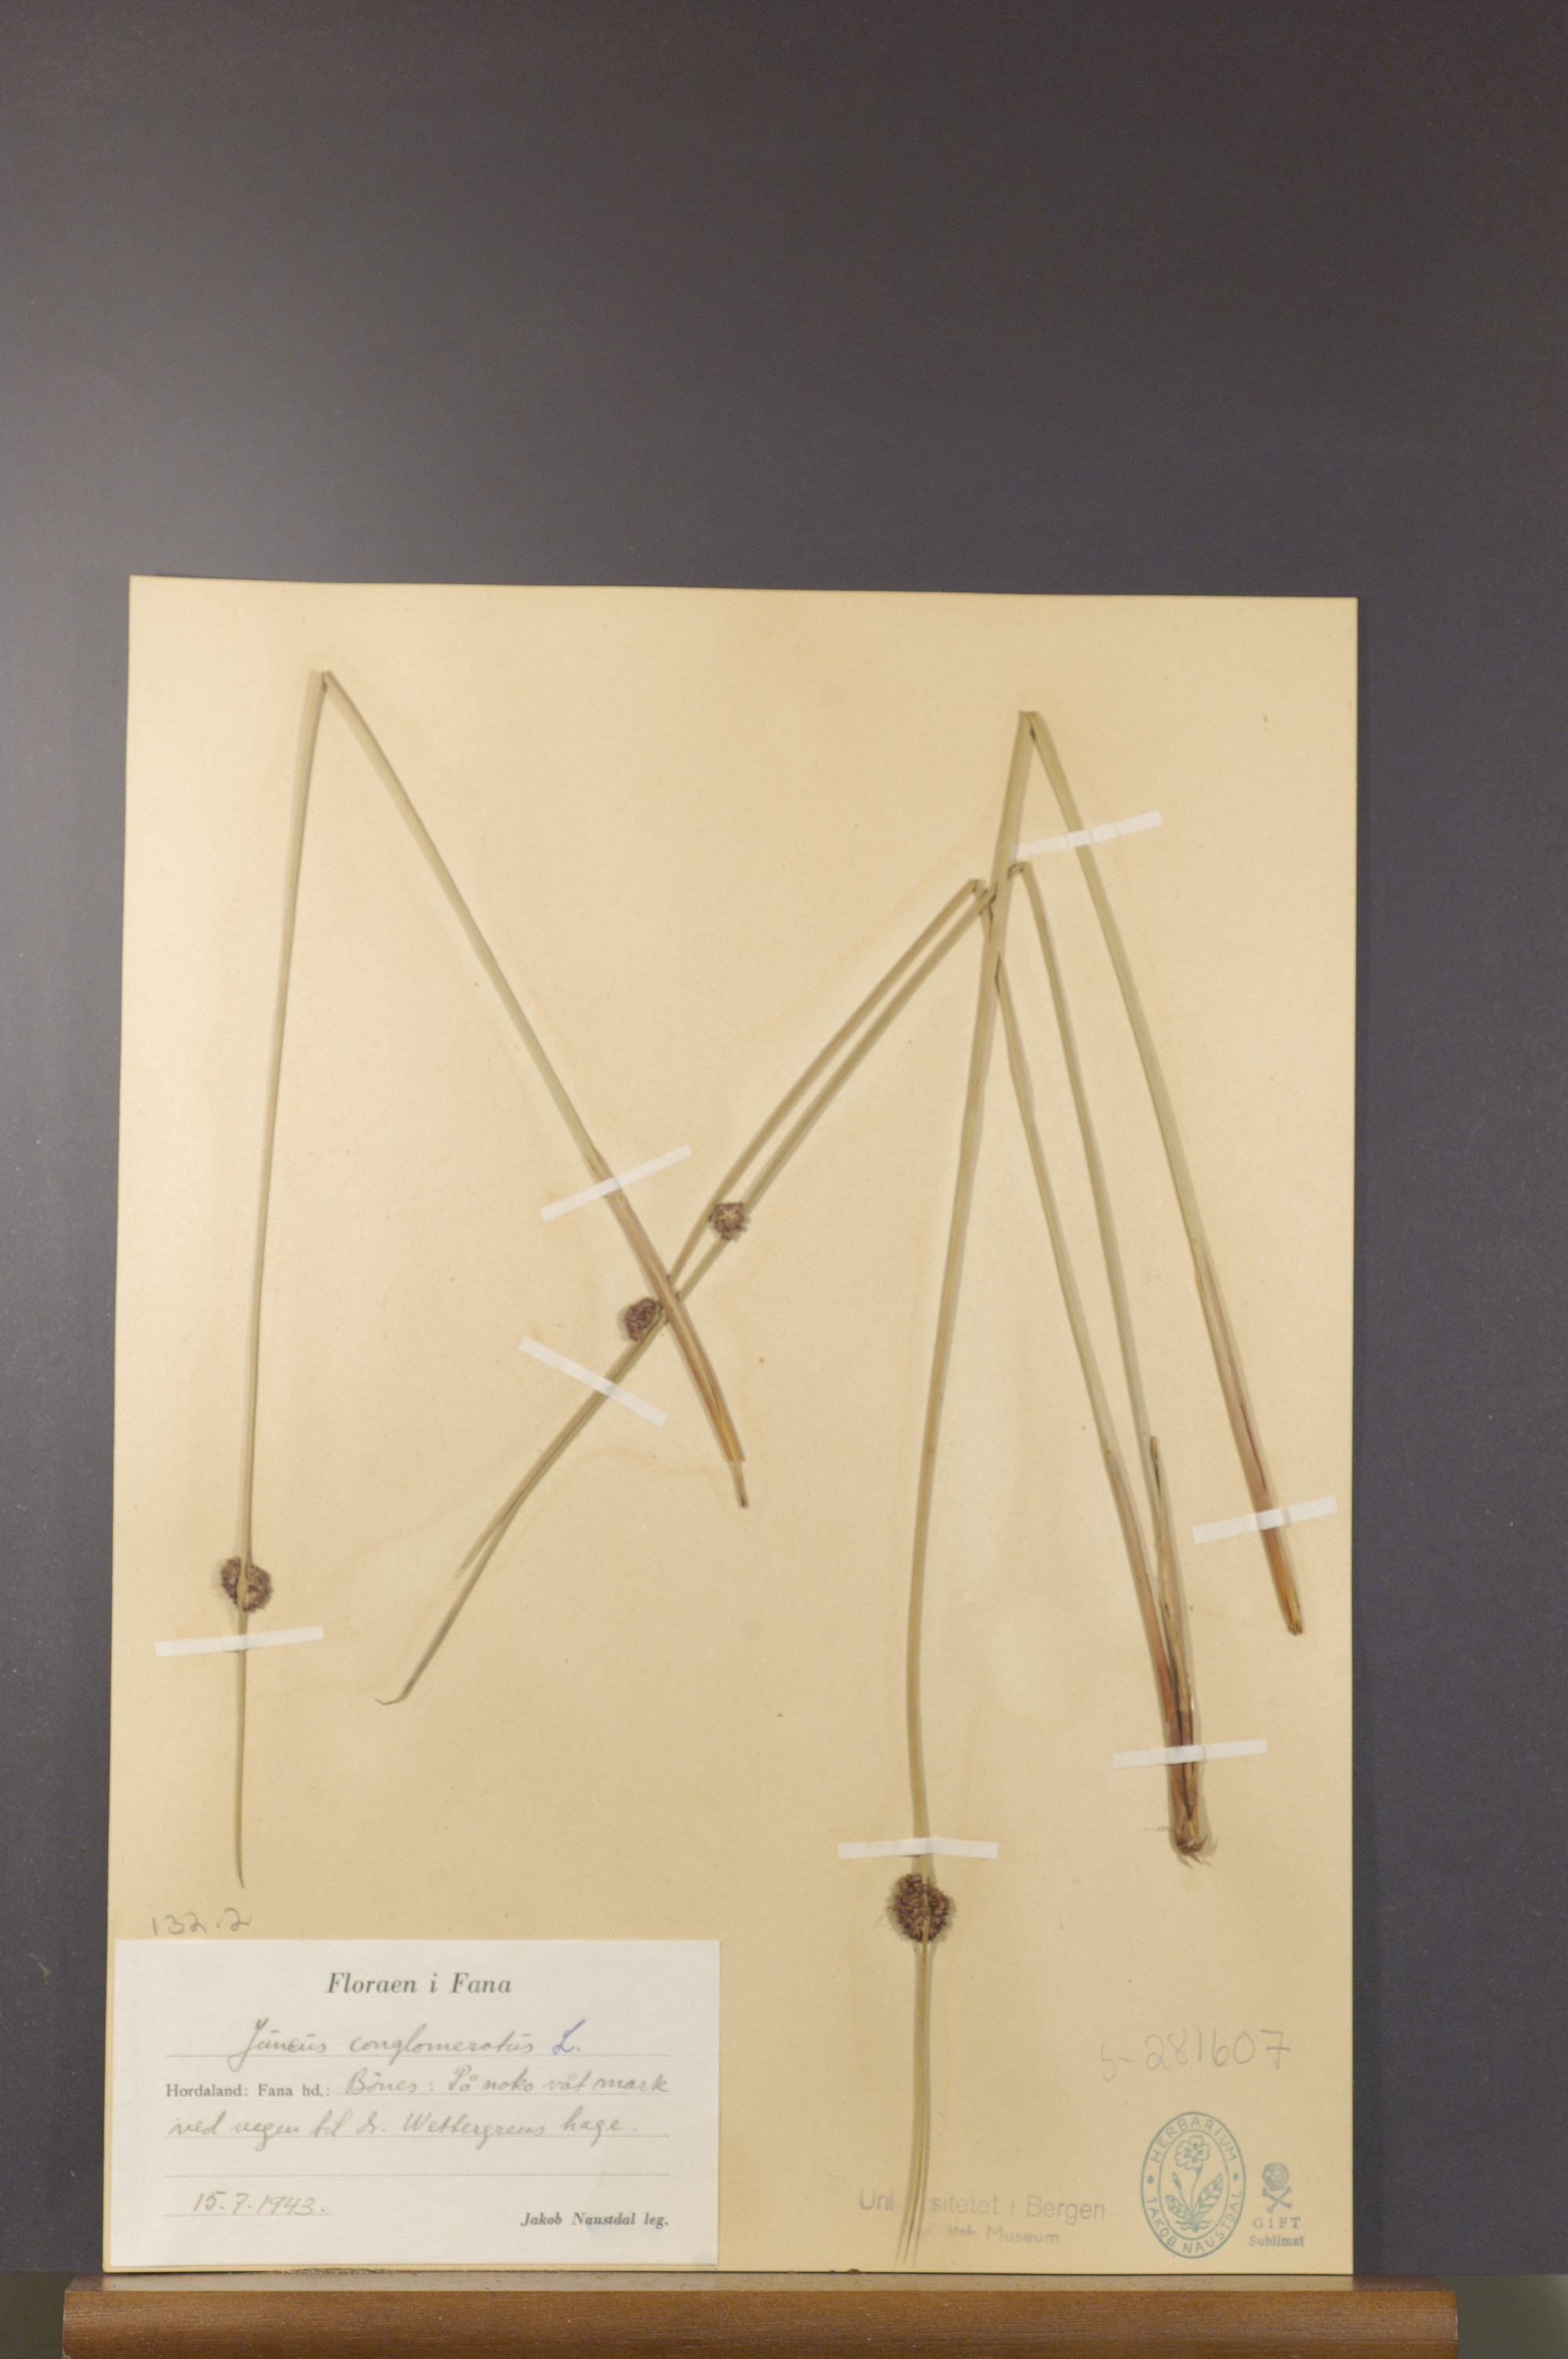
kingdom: Plantae
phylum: Tracheophyta
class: Liliopsida
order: Poales
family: Juncaceae
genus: Juncus
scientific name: Juncus conglomeratus
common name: Compact rush
